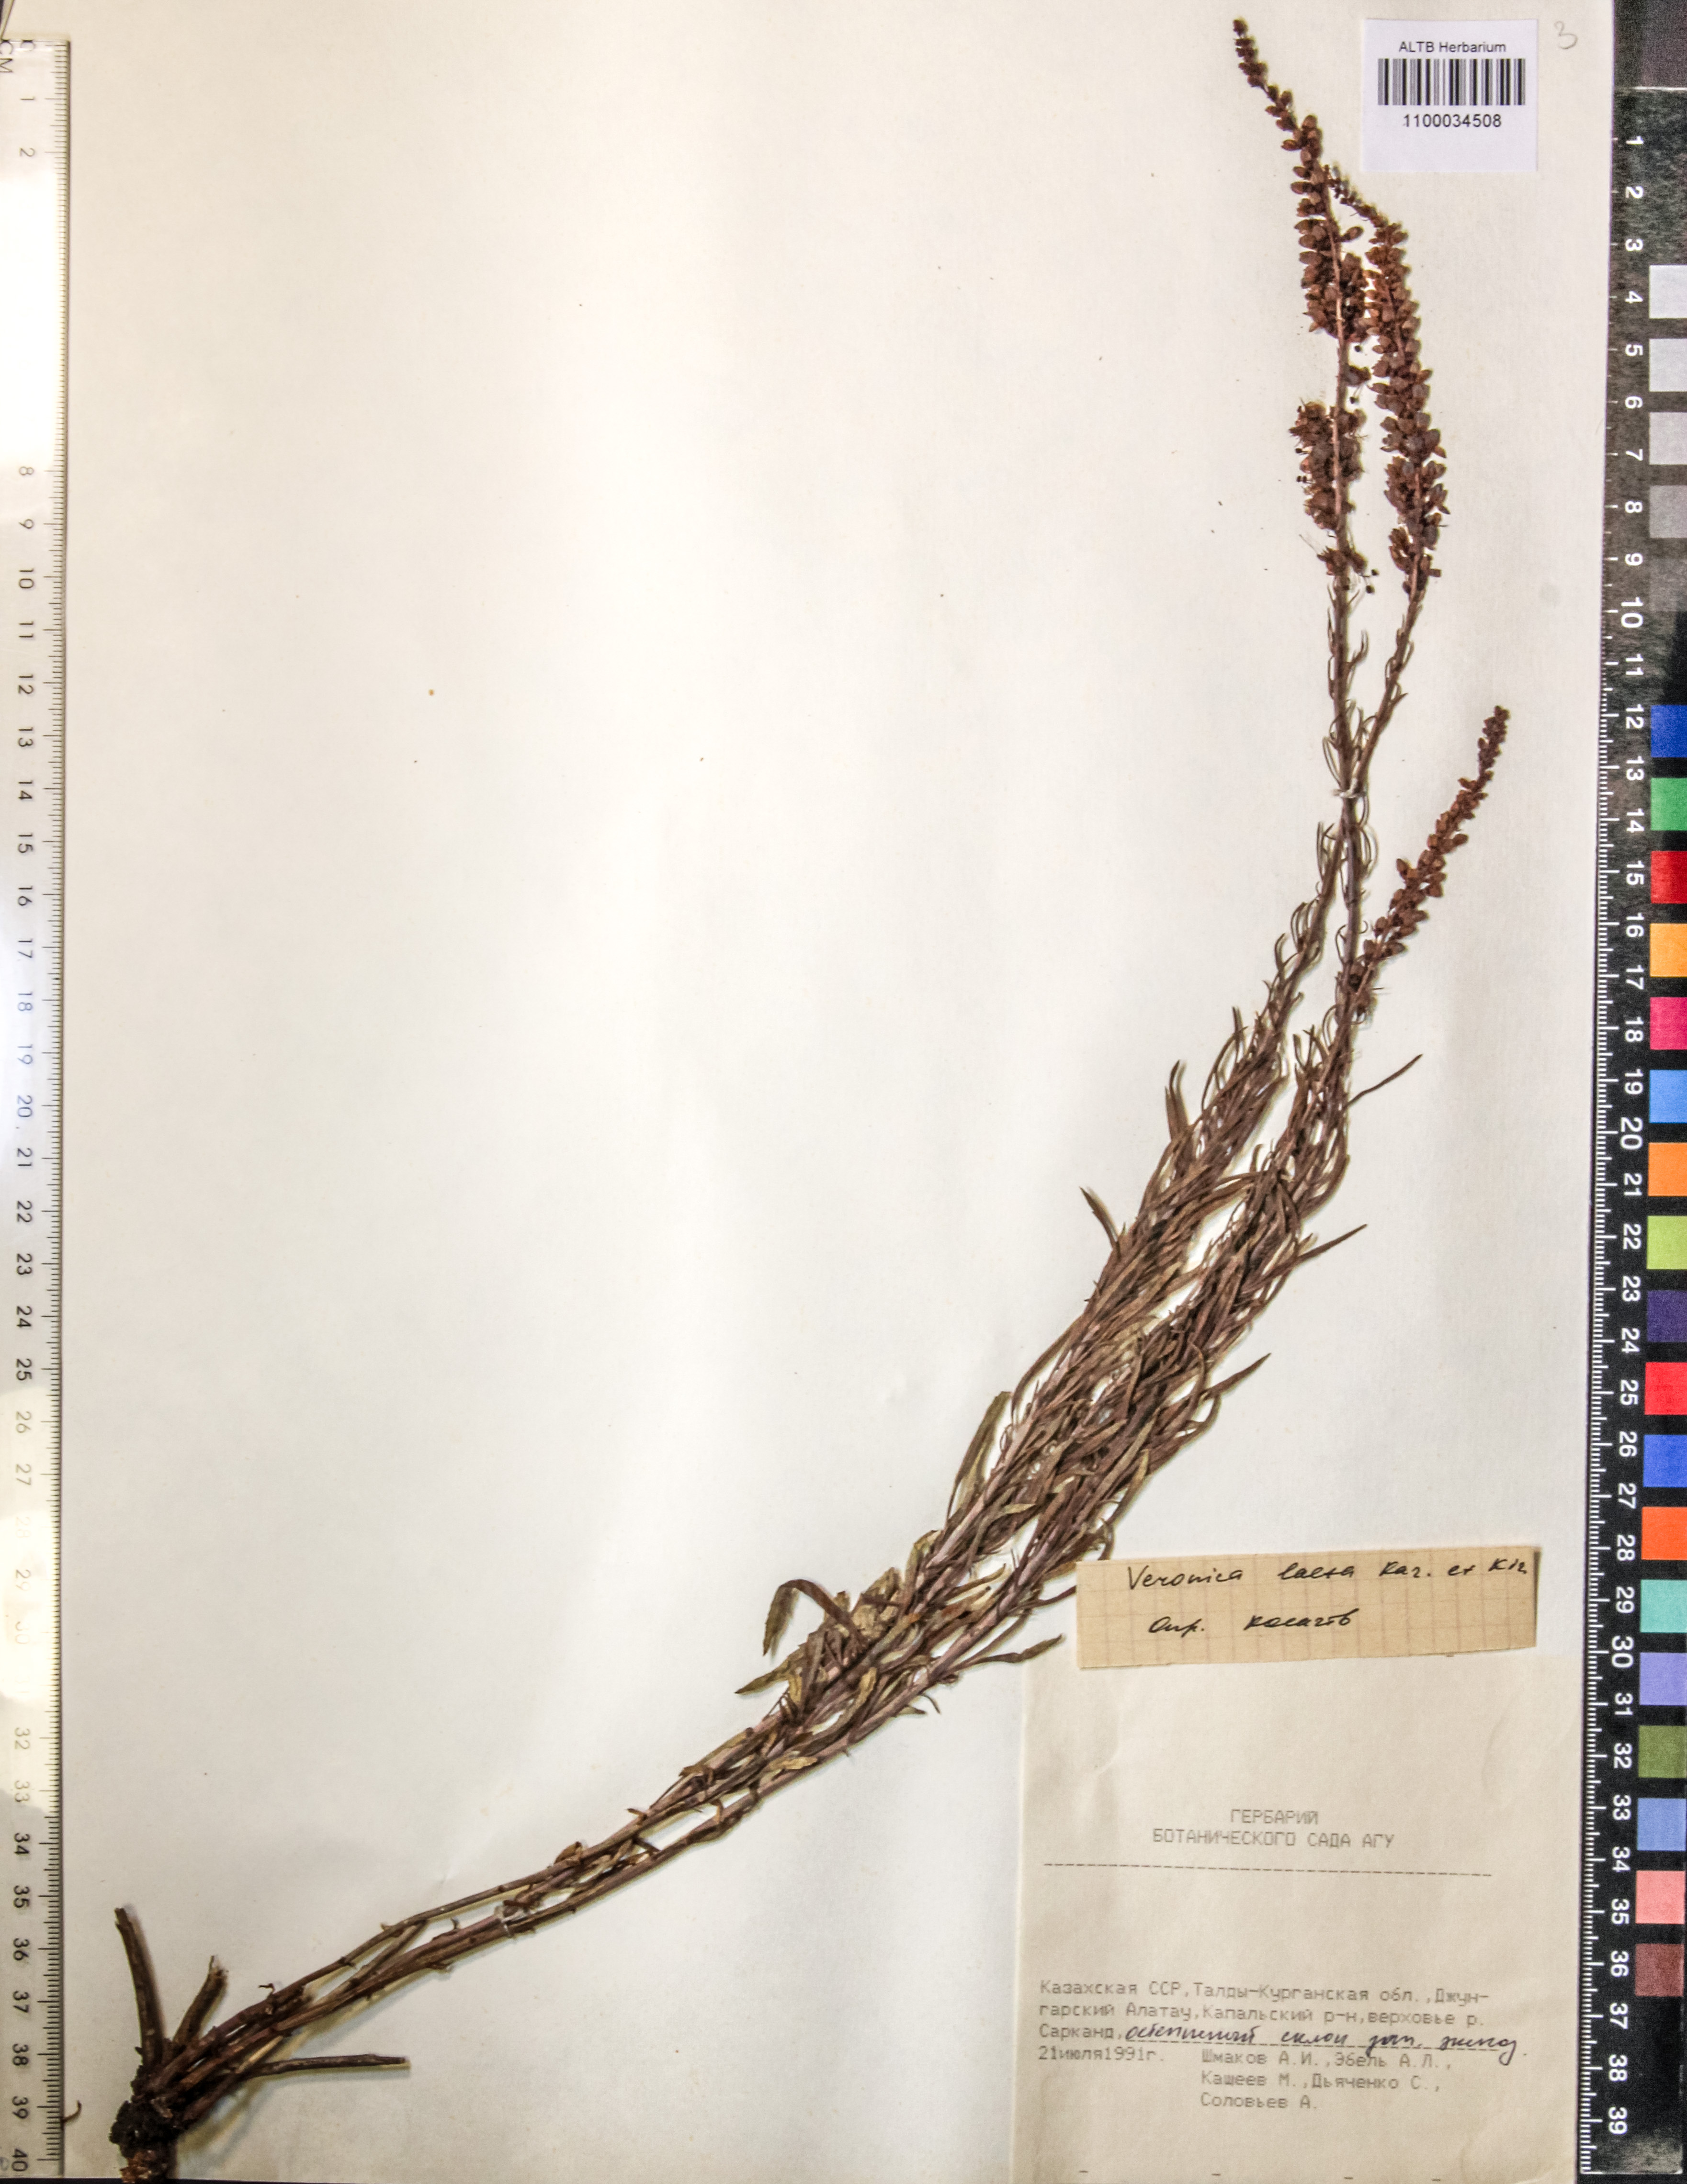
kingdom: Plantae
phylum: Tracheophyta
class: Magnoliopsida
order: Lamiales
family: Plantaginaceae
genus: Veronica
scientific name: Veronica laeta
